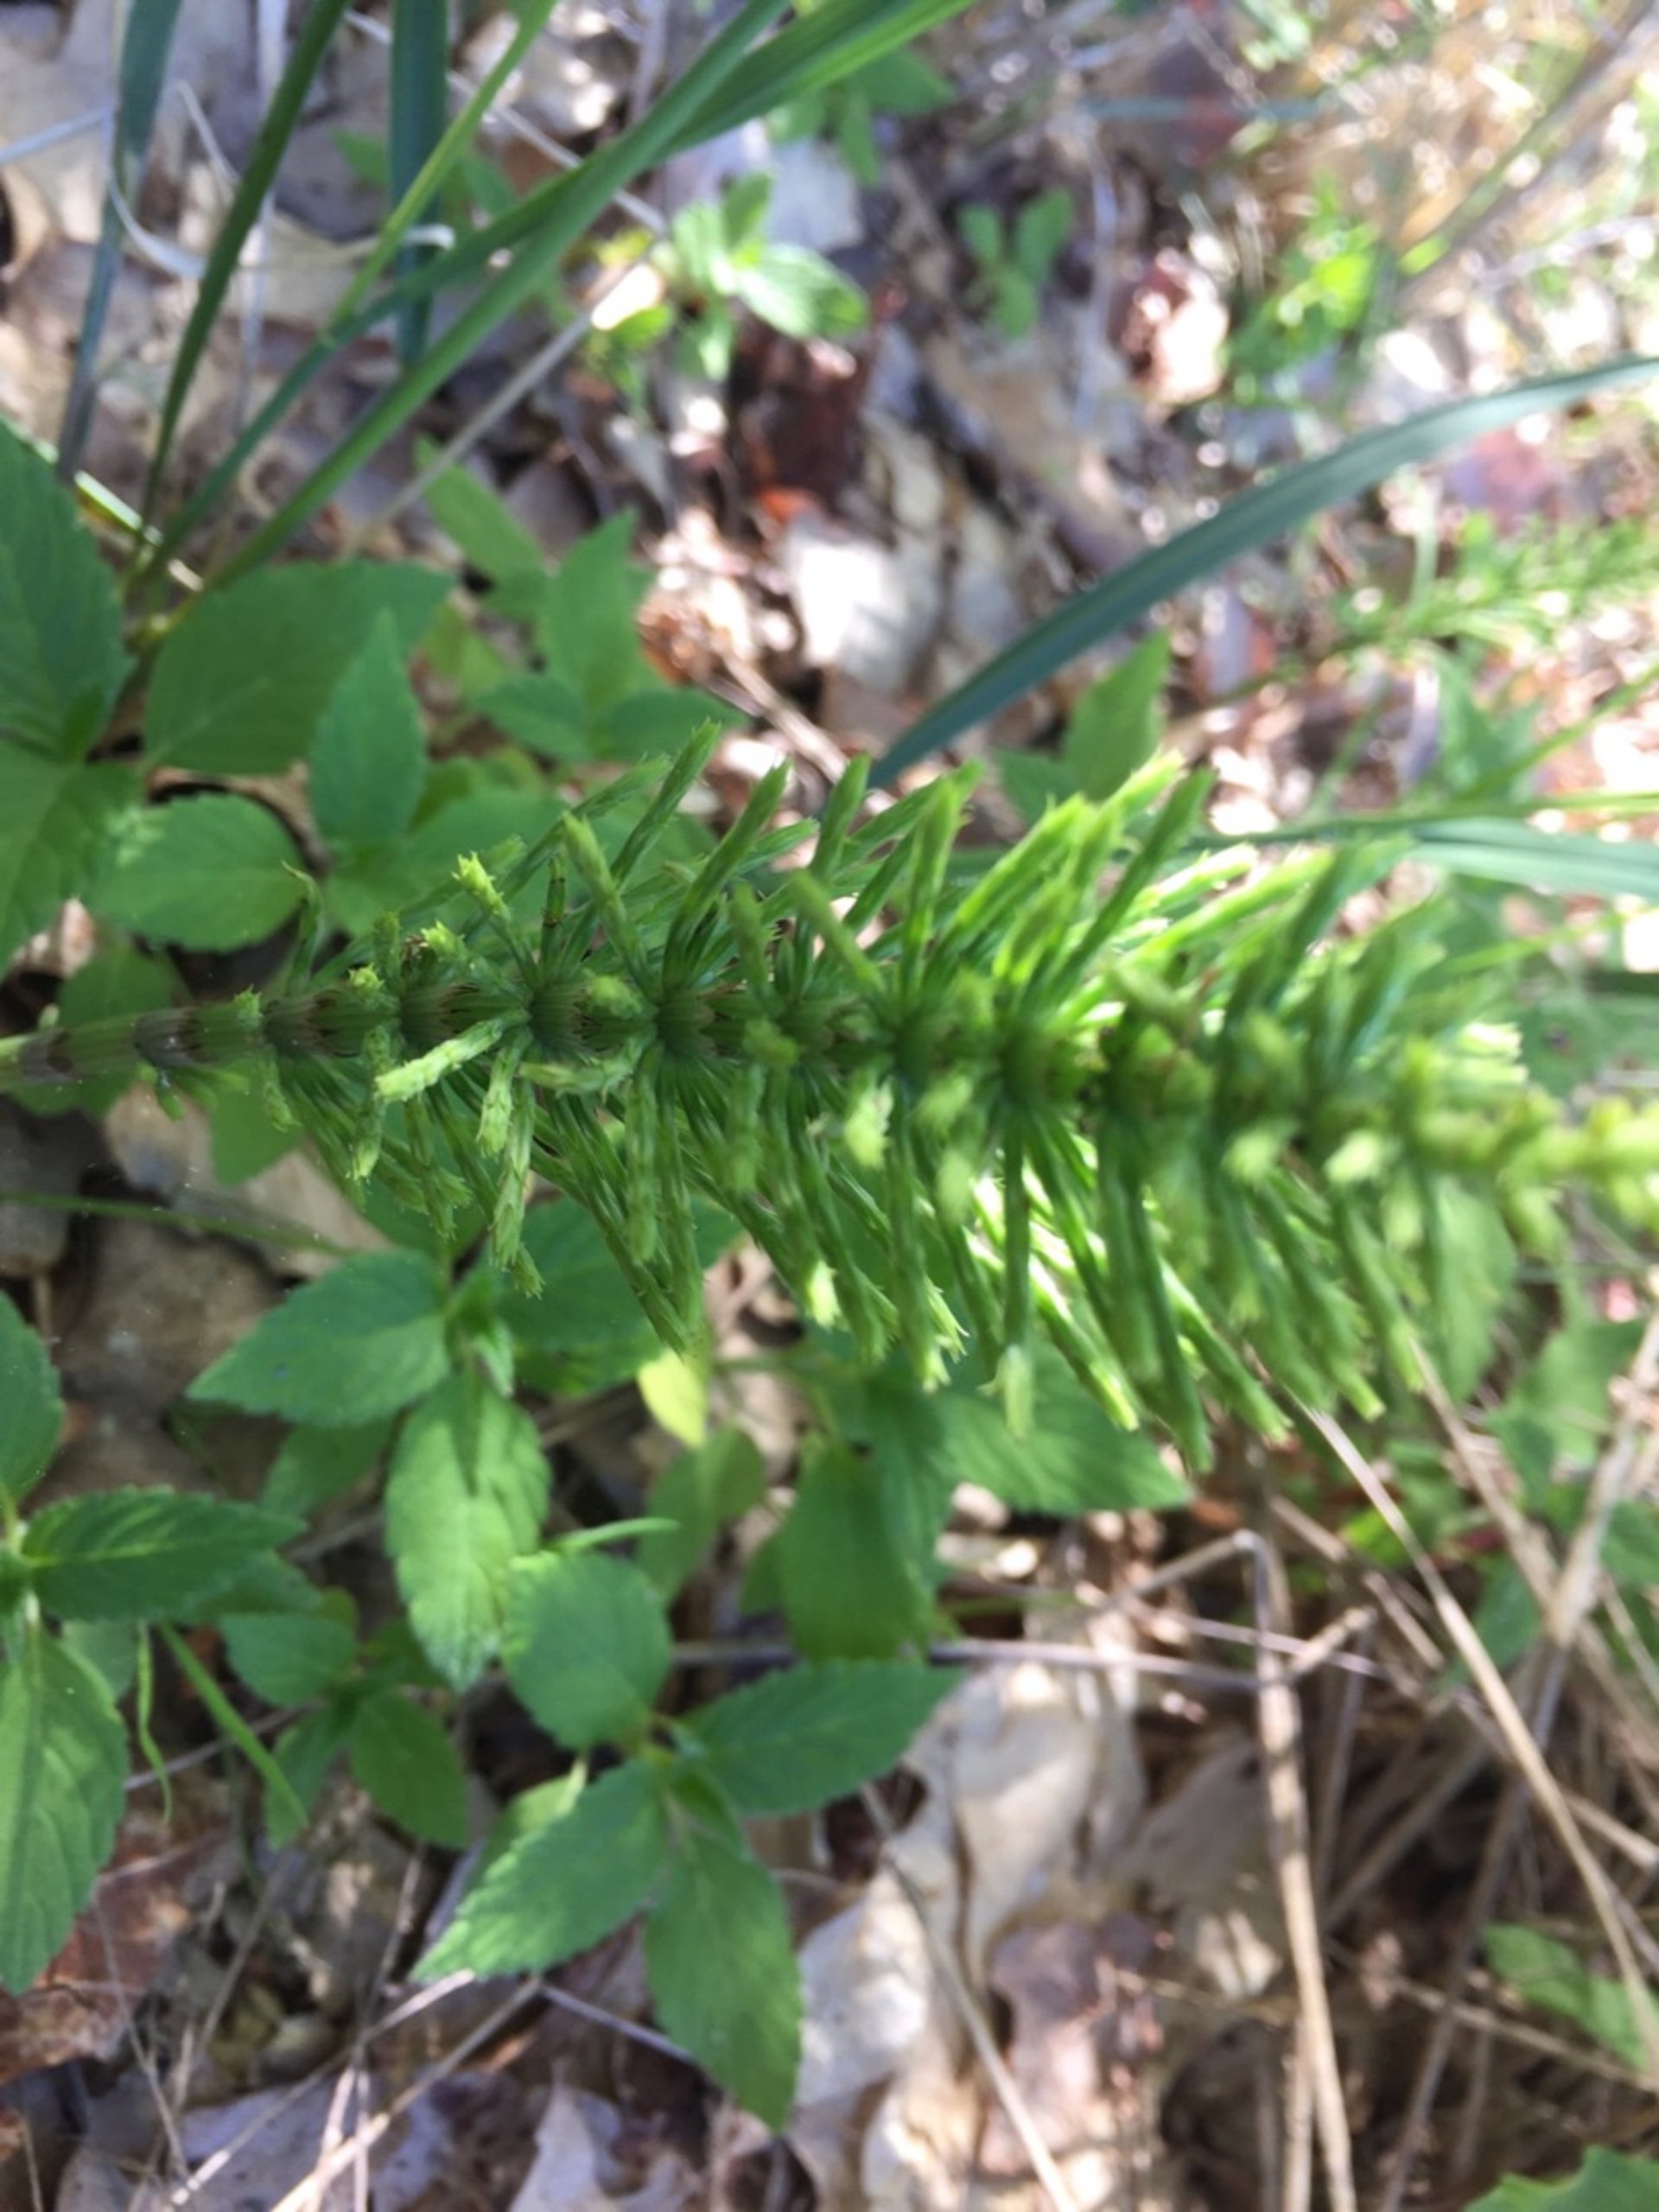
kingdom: Plantae
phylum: Tracheophyta
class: Polypodiopsida
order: Equisetales
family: Equisetaceae
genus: Equisetum
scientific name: Equisetum arvense
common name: Ager-padderok
